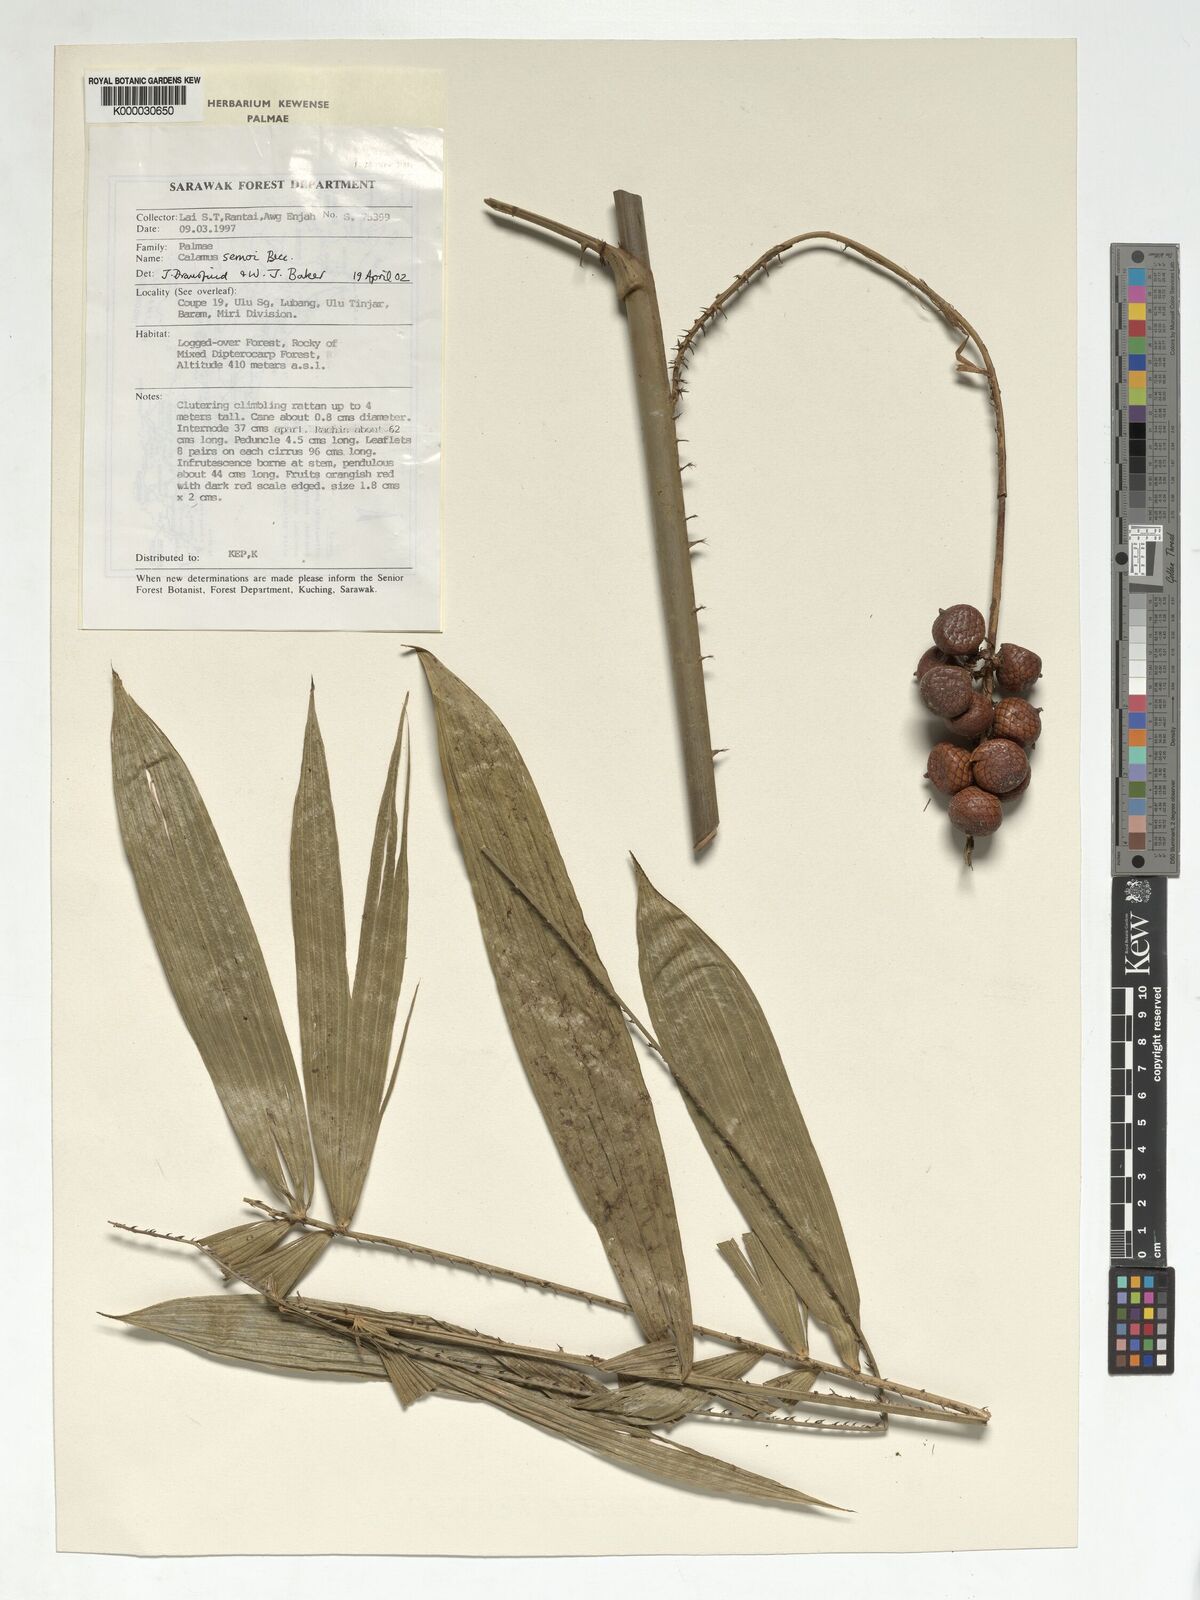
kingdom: Plantae
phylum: Tracheophyta
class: Liliopsida
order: Arecales
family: Arecaceae
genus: Calamus
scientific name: Calamus erioacanthus
